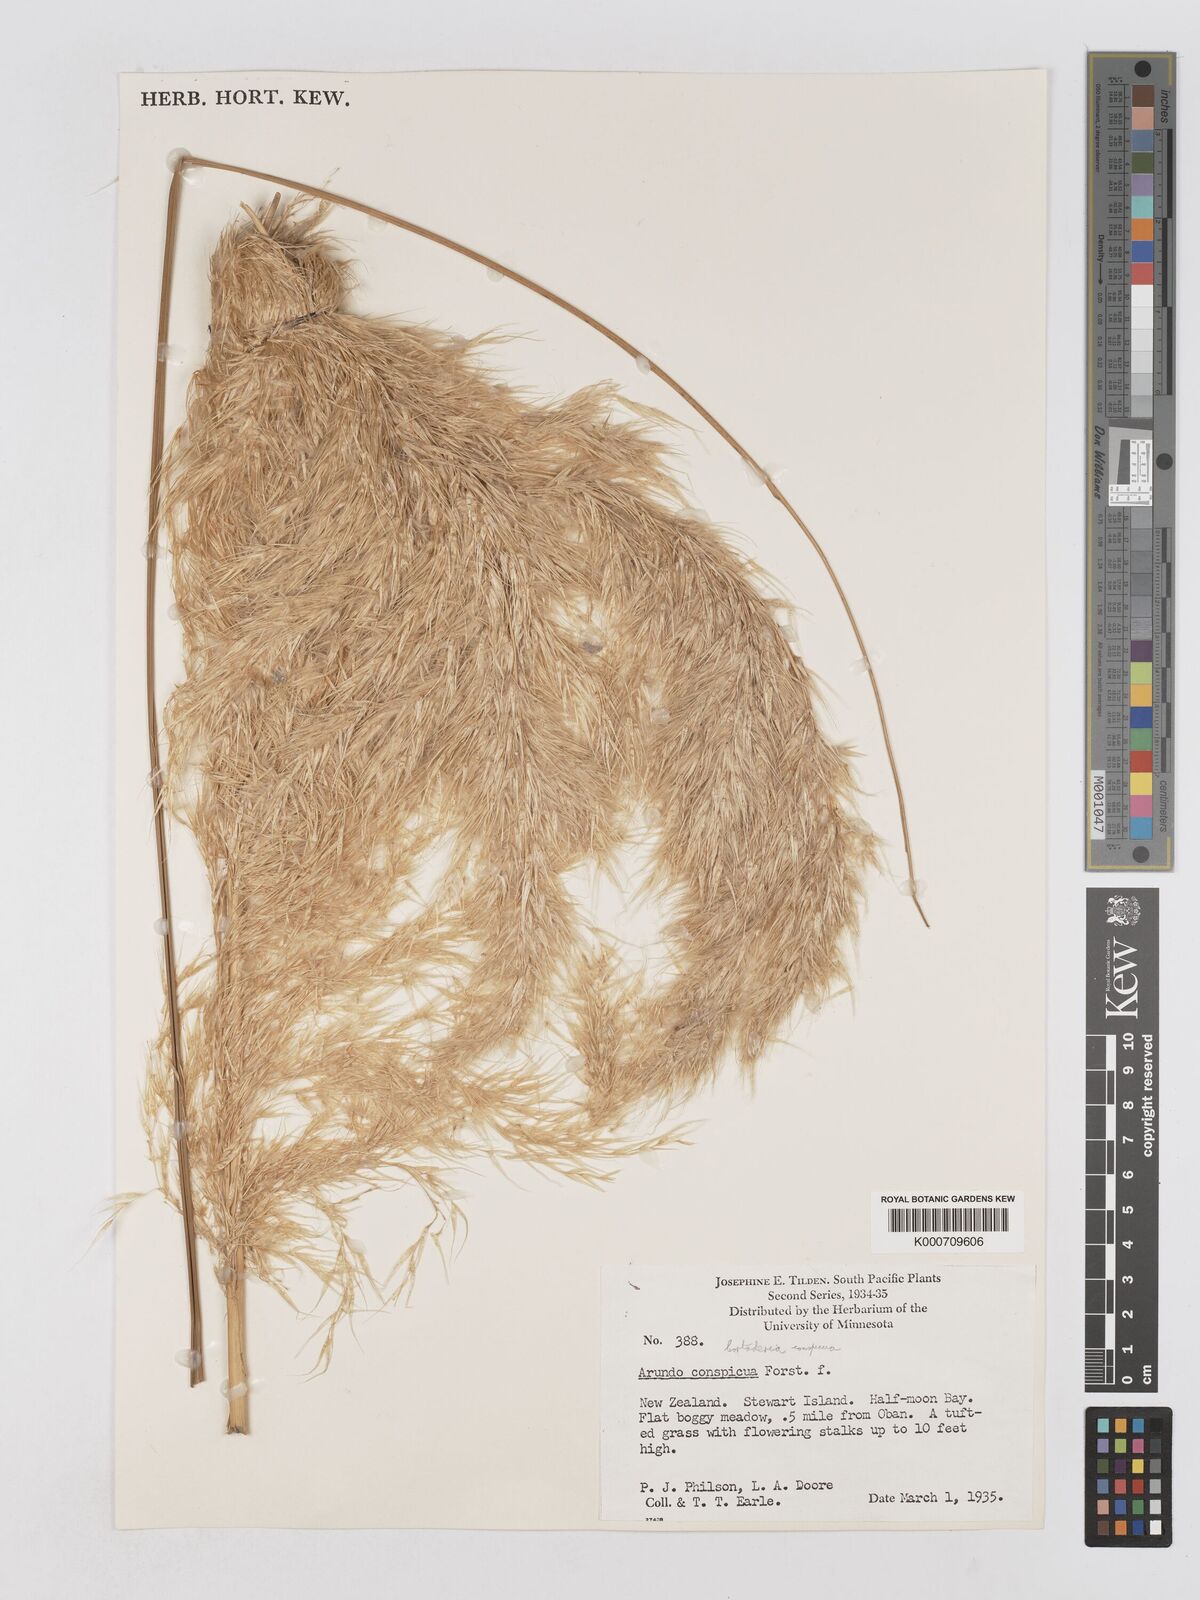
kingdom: Plantae
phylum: Tracheophyta
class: Liliopsida
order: Poales
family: Poaceae
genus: Austroderia
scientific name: Austroderia richardii
